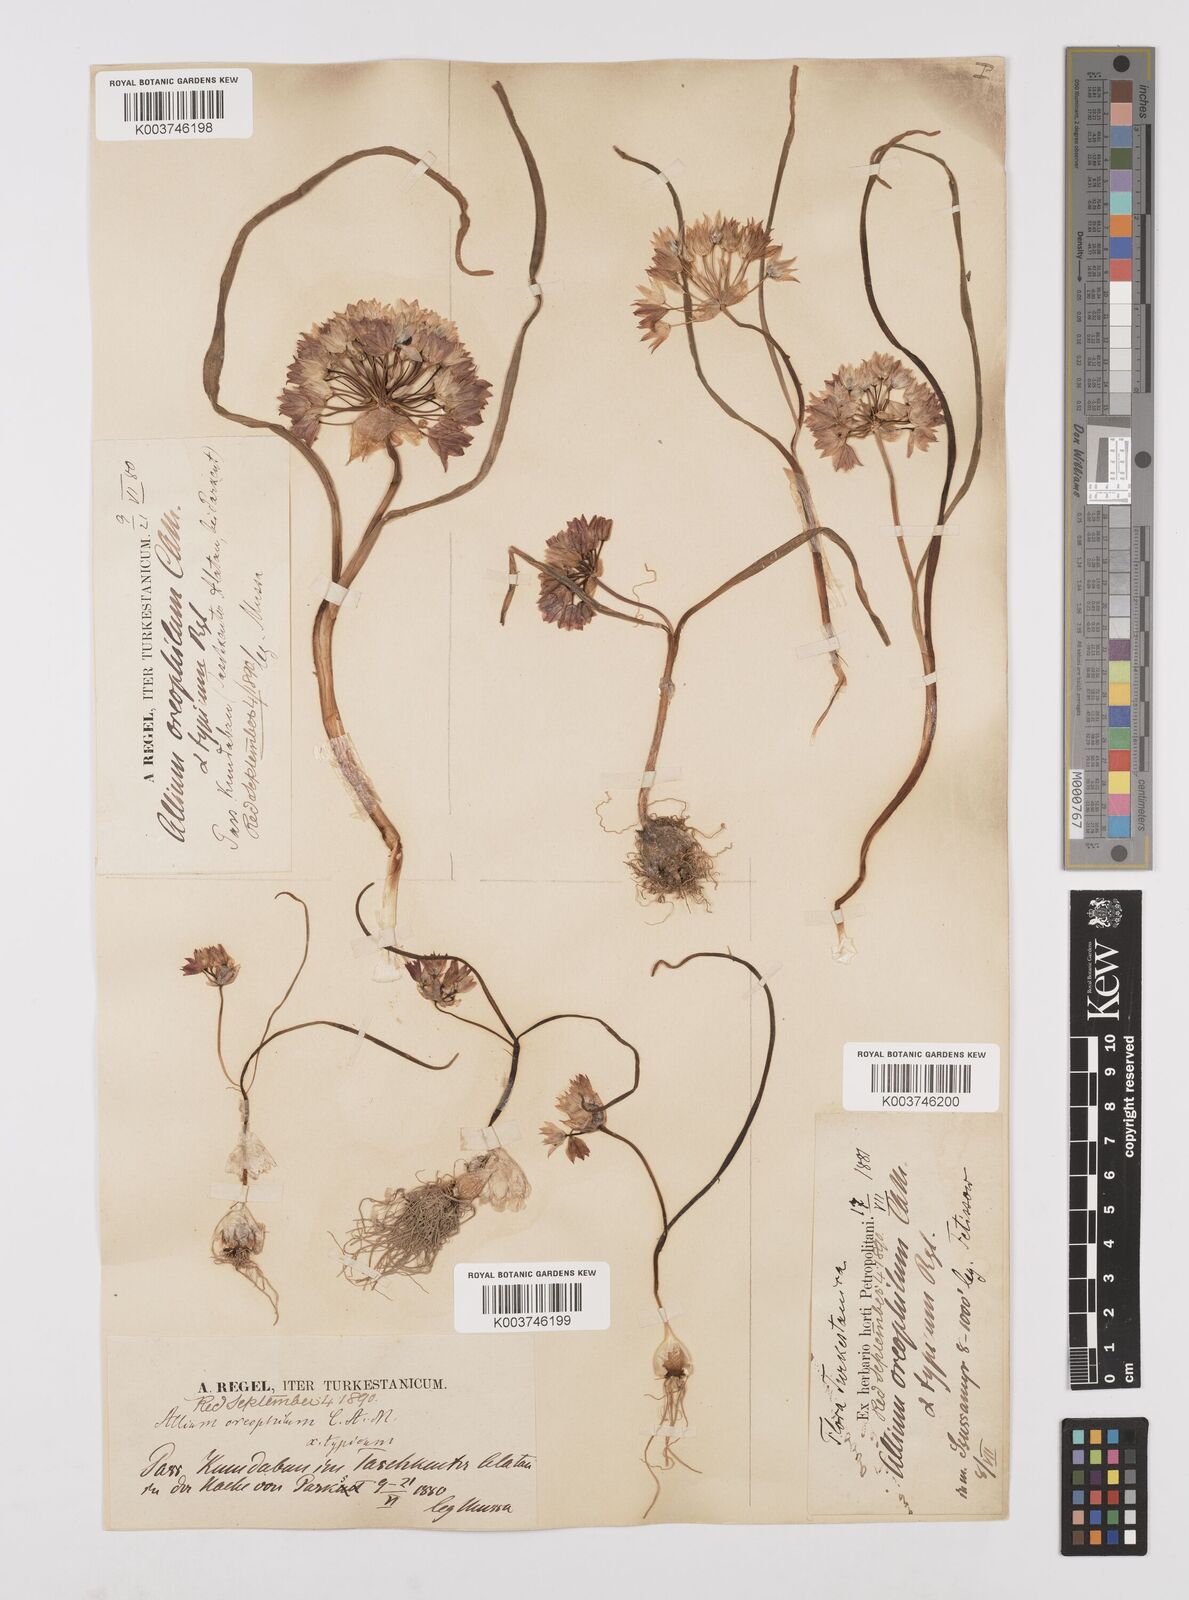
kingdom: Plantae
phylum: Tracheophyta
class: Liliopsida
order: Asparagales
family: Amaryllidaceae
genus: Allium
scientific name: Allium oreophilum
